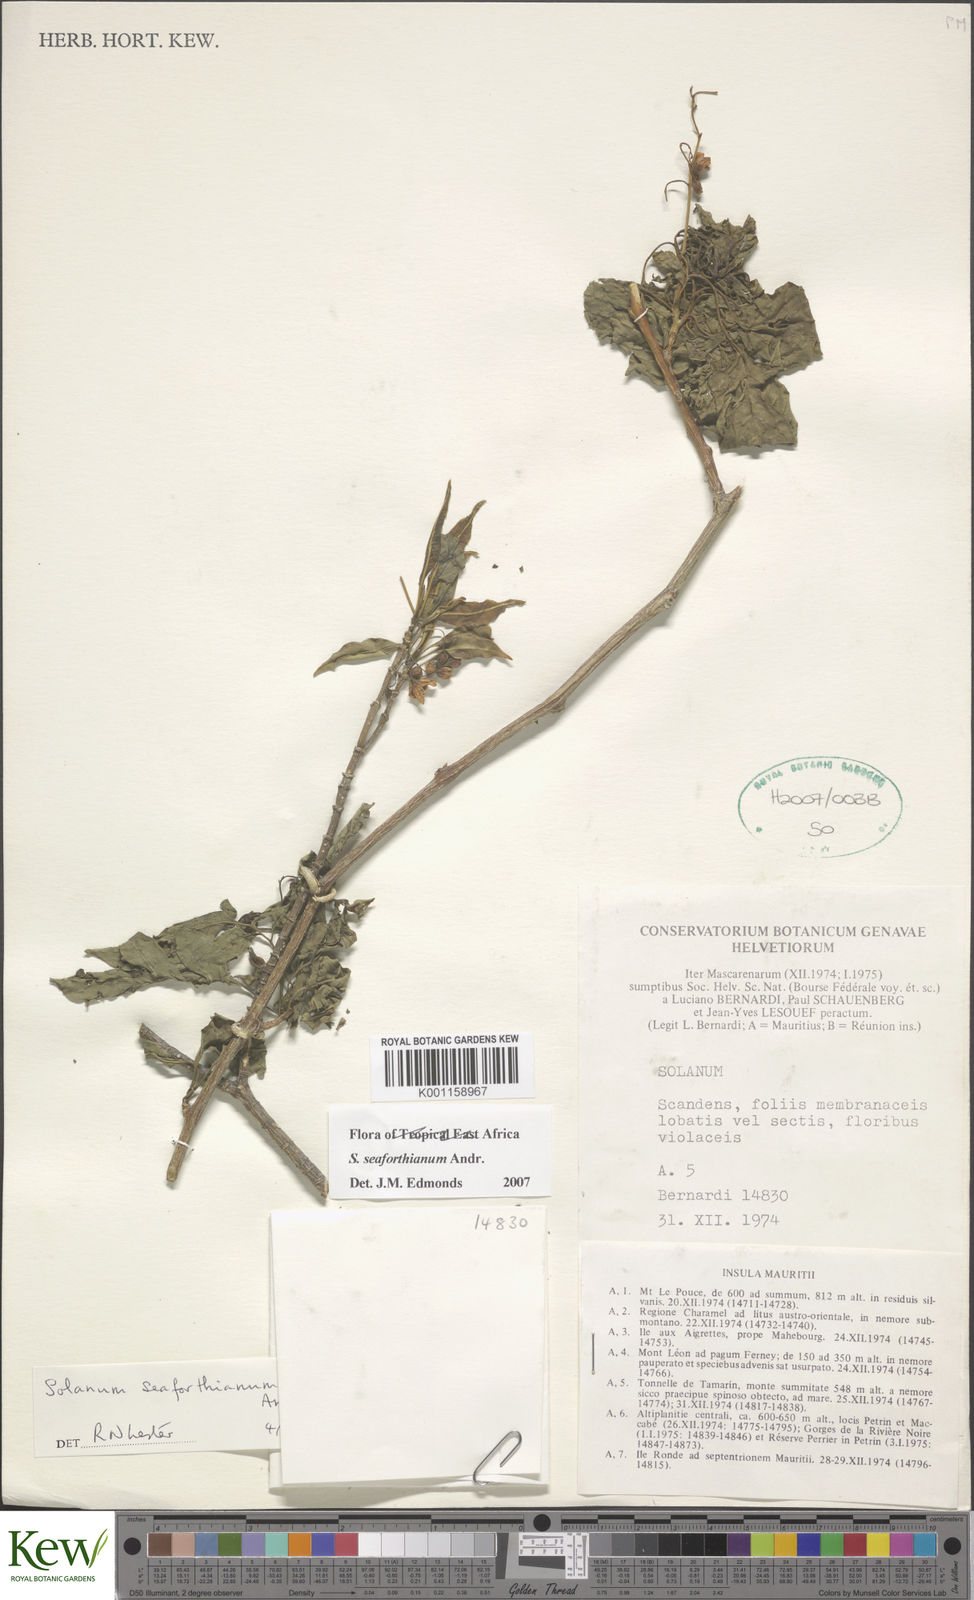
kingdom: Plantae
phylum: Tracheophyta
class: Magnoliopsida
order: Solanales
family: Solanaceae
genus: Solanum
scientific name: Solanum seaforthianum
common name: Brazilian nightshade
